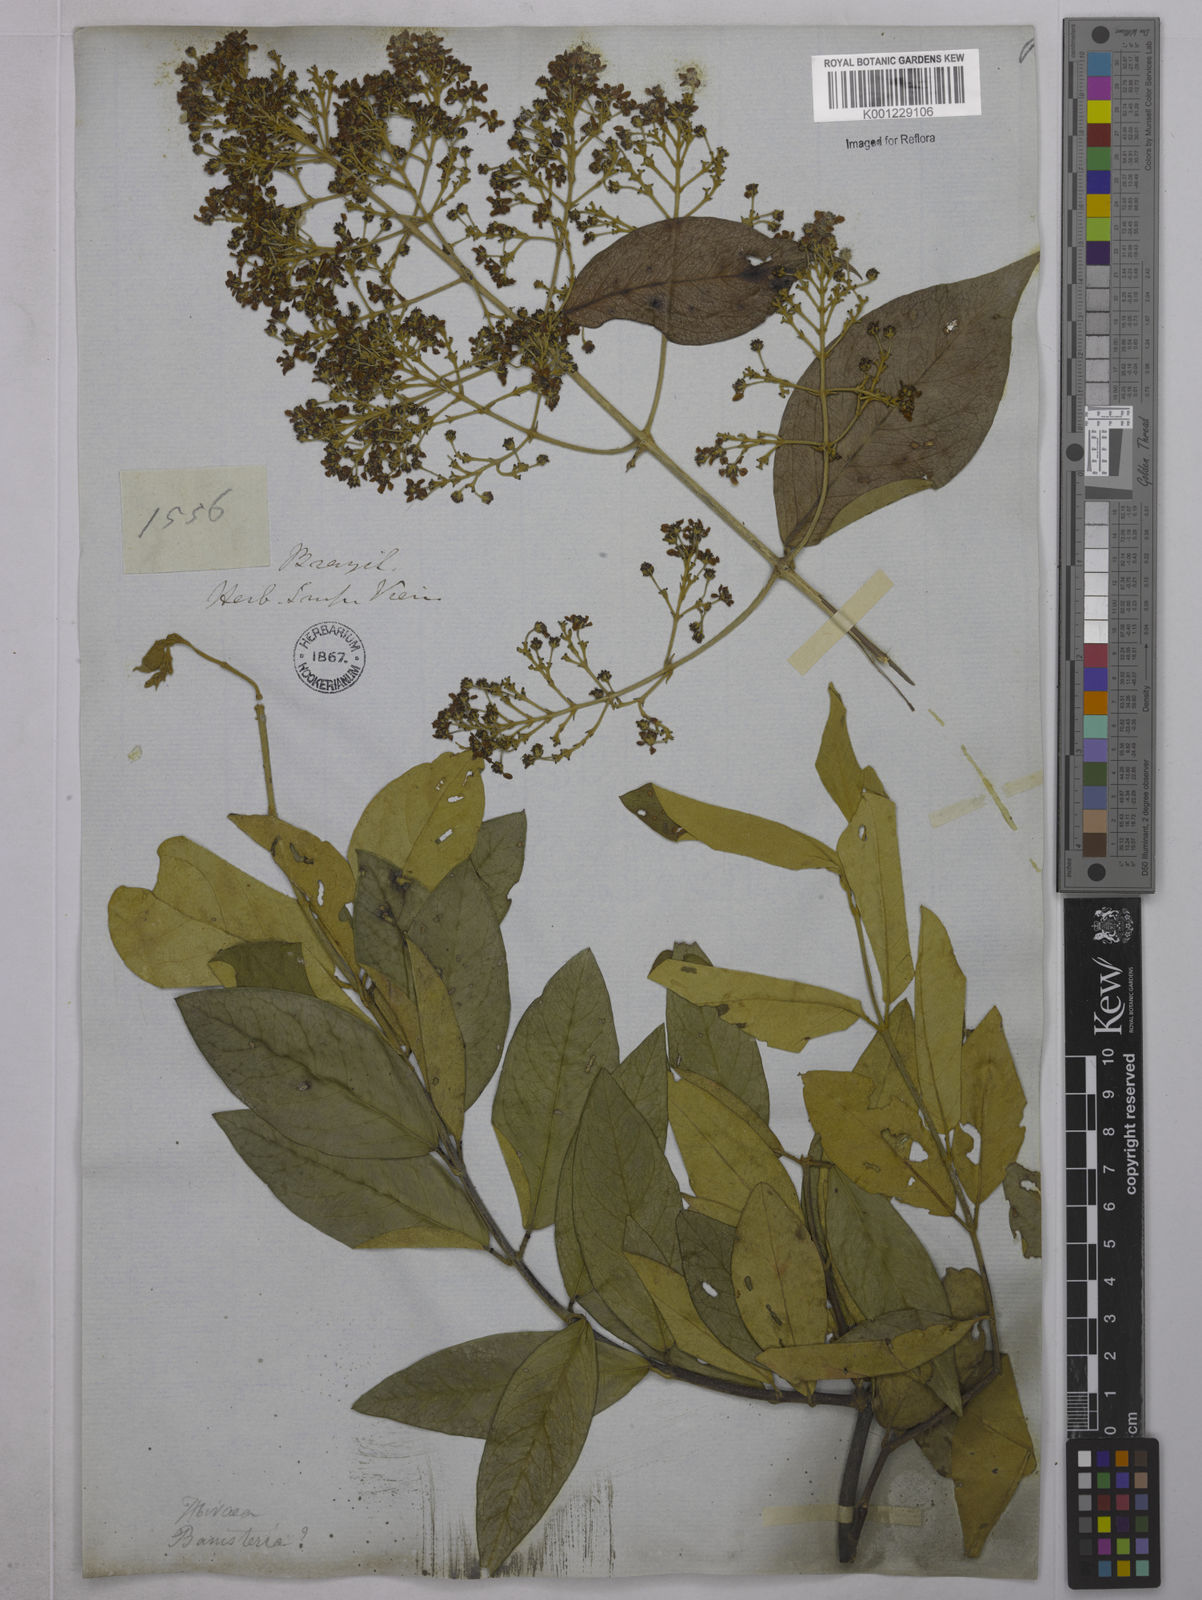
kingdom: Plantae
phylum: Tracheophyta
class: Magnoliopsida
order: Malpighiales
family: Malpighiaceae
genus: Niedenzuella
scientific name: Niedenzuella sericea
